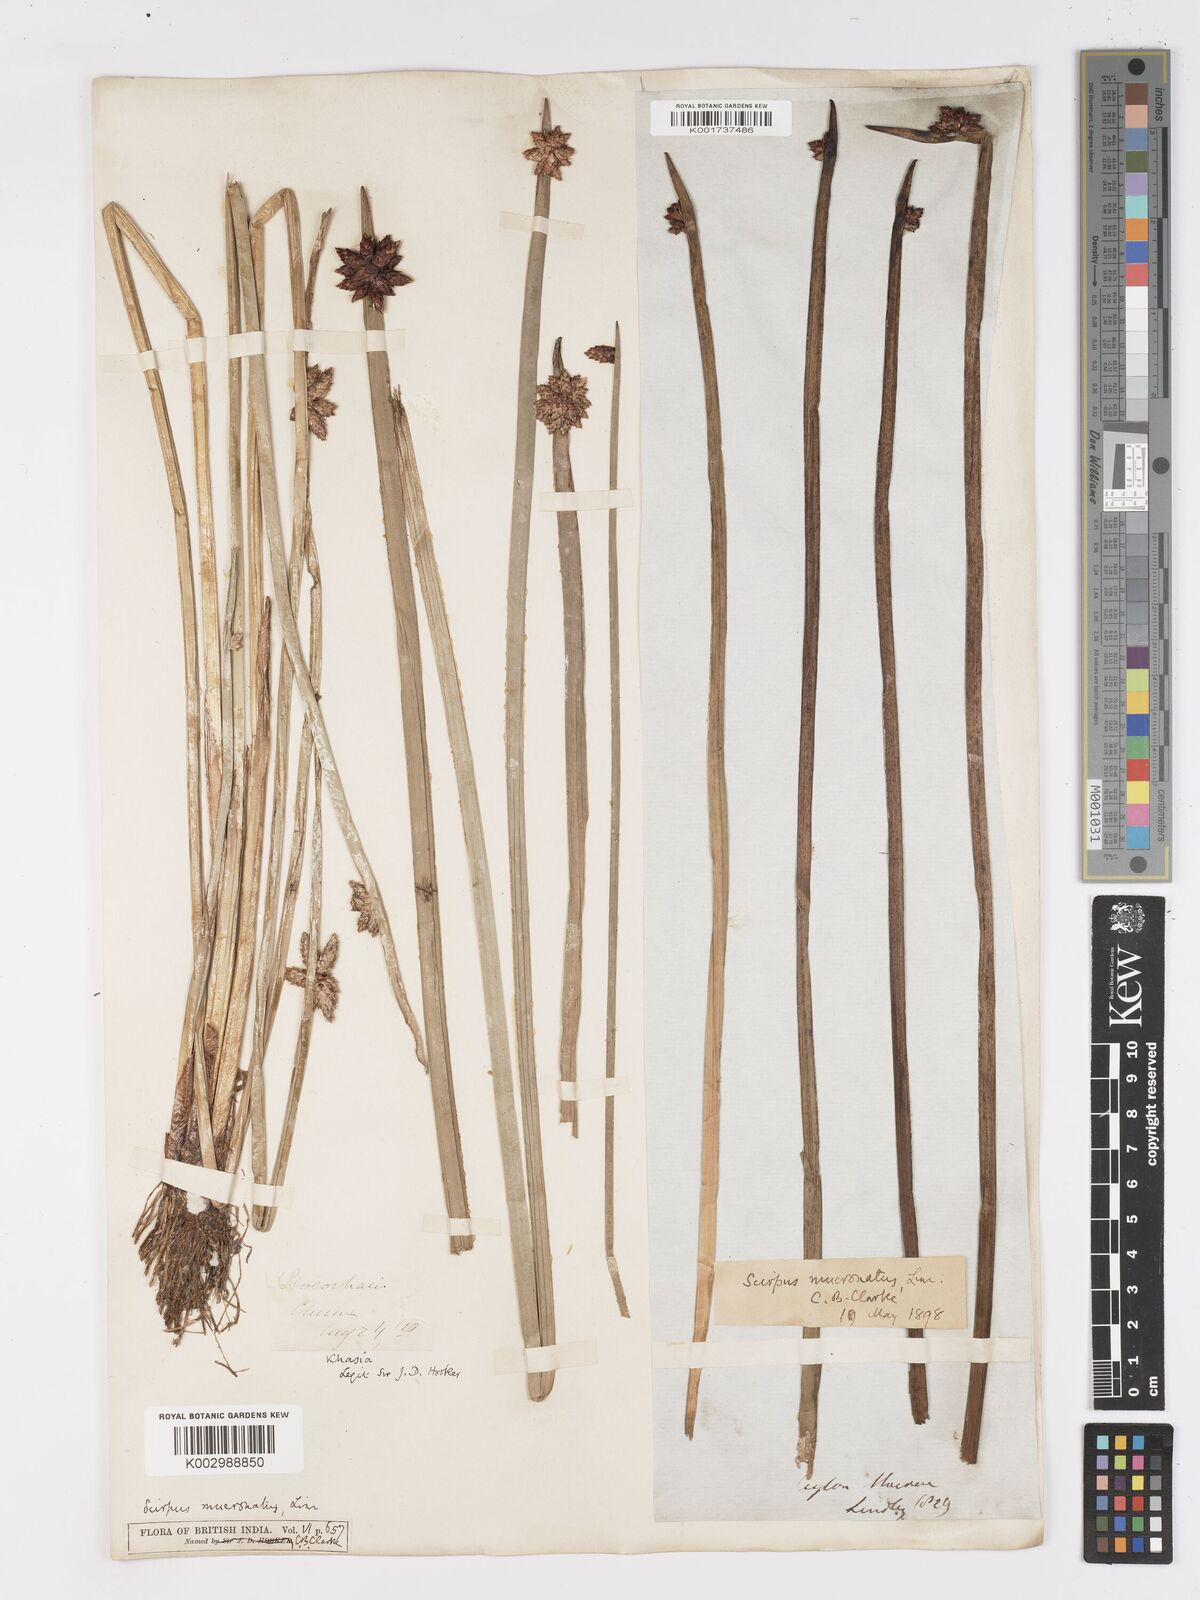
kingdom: Plantae
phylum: Tracheophyta
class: Liliopsida
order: Poales
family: Cyperaceae
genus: Schoenoplectiella
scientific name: Schoenoplectiella mucronata
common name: Bog bulrush
